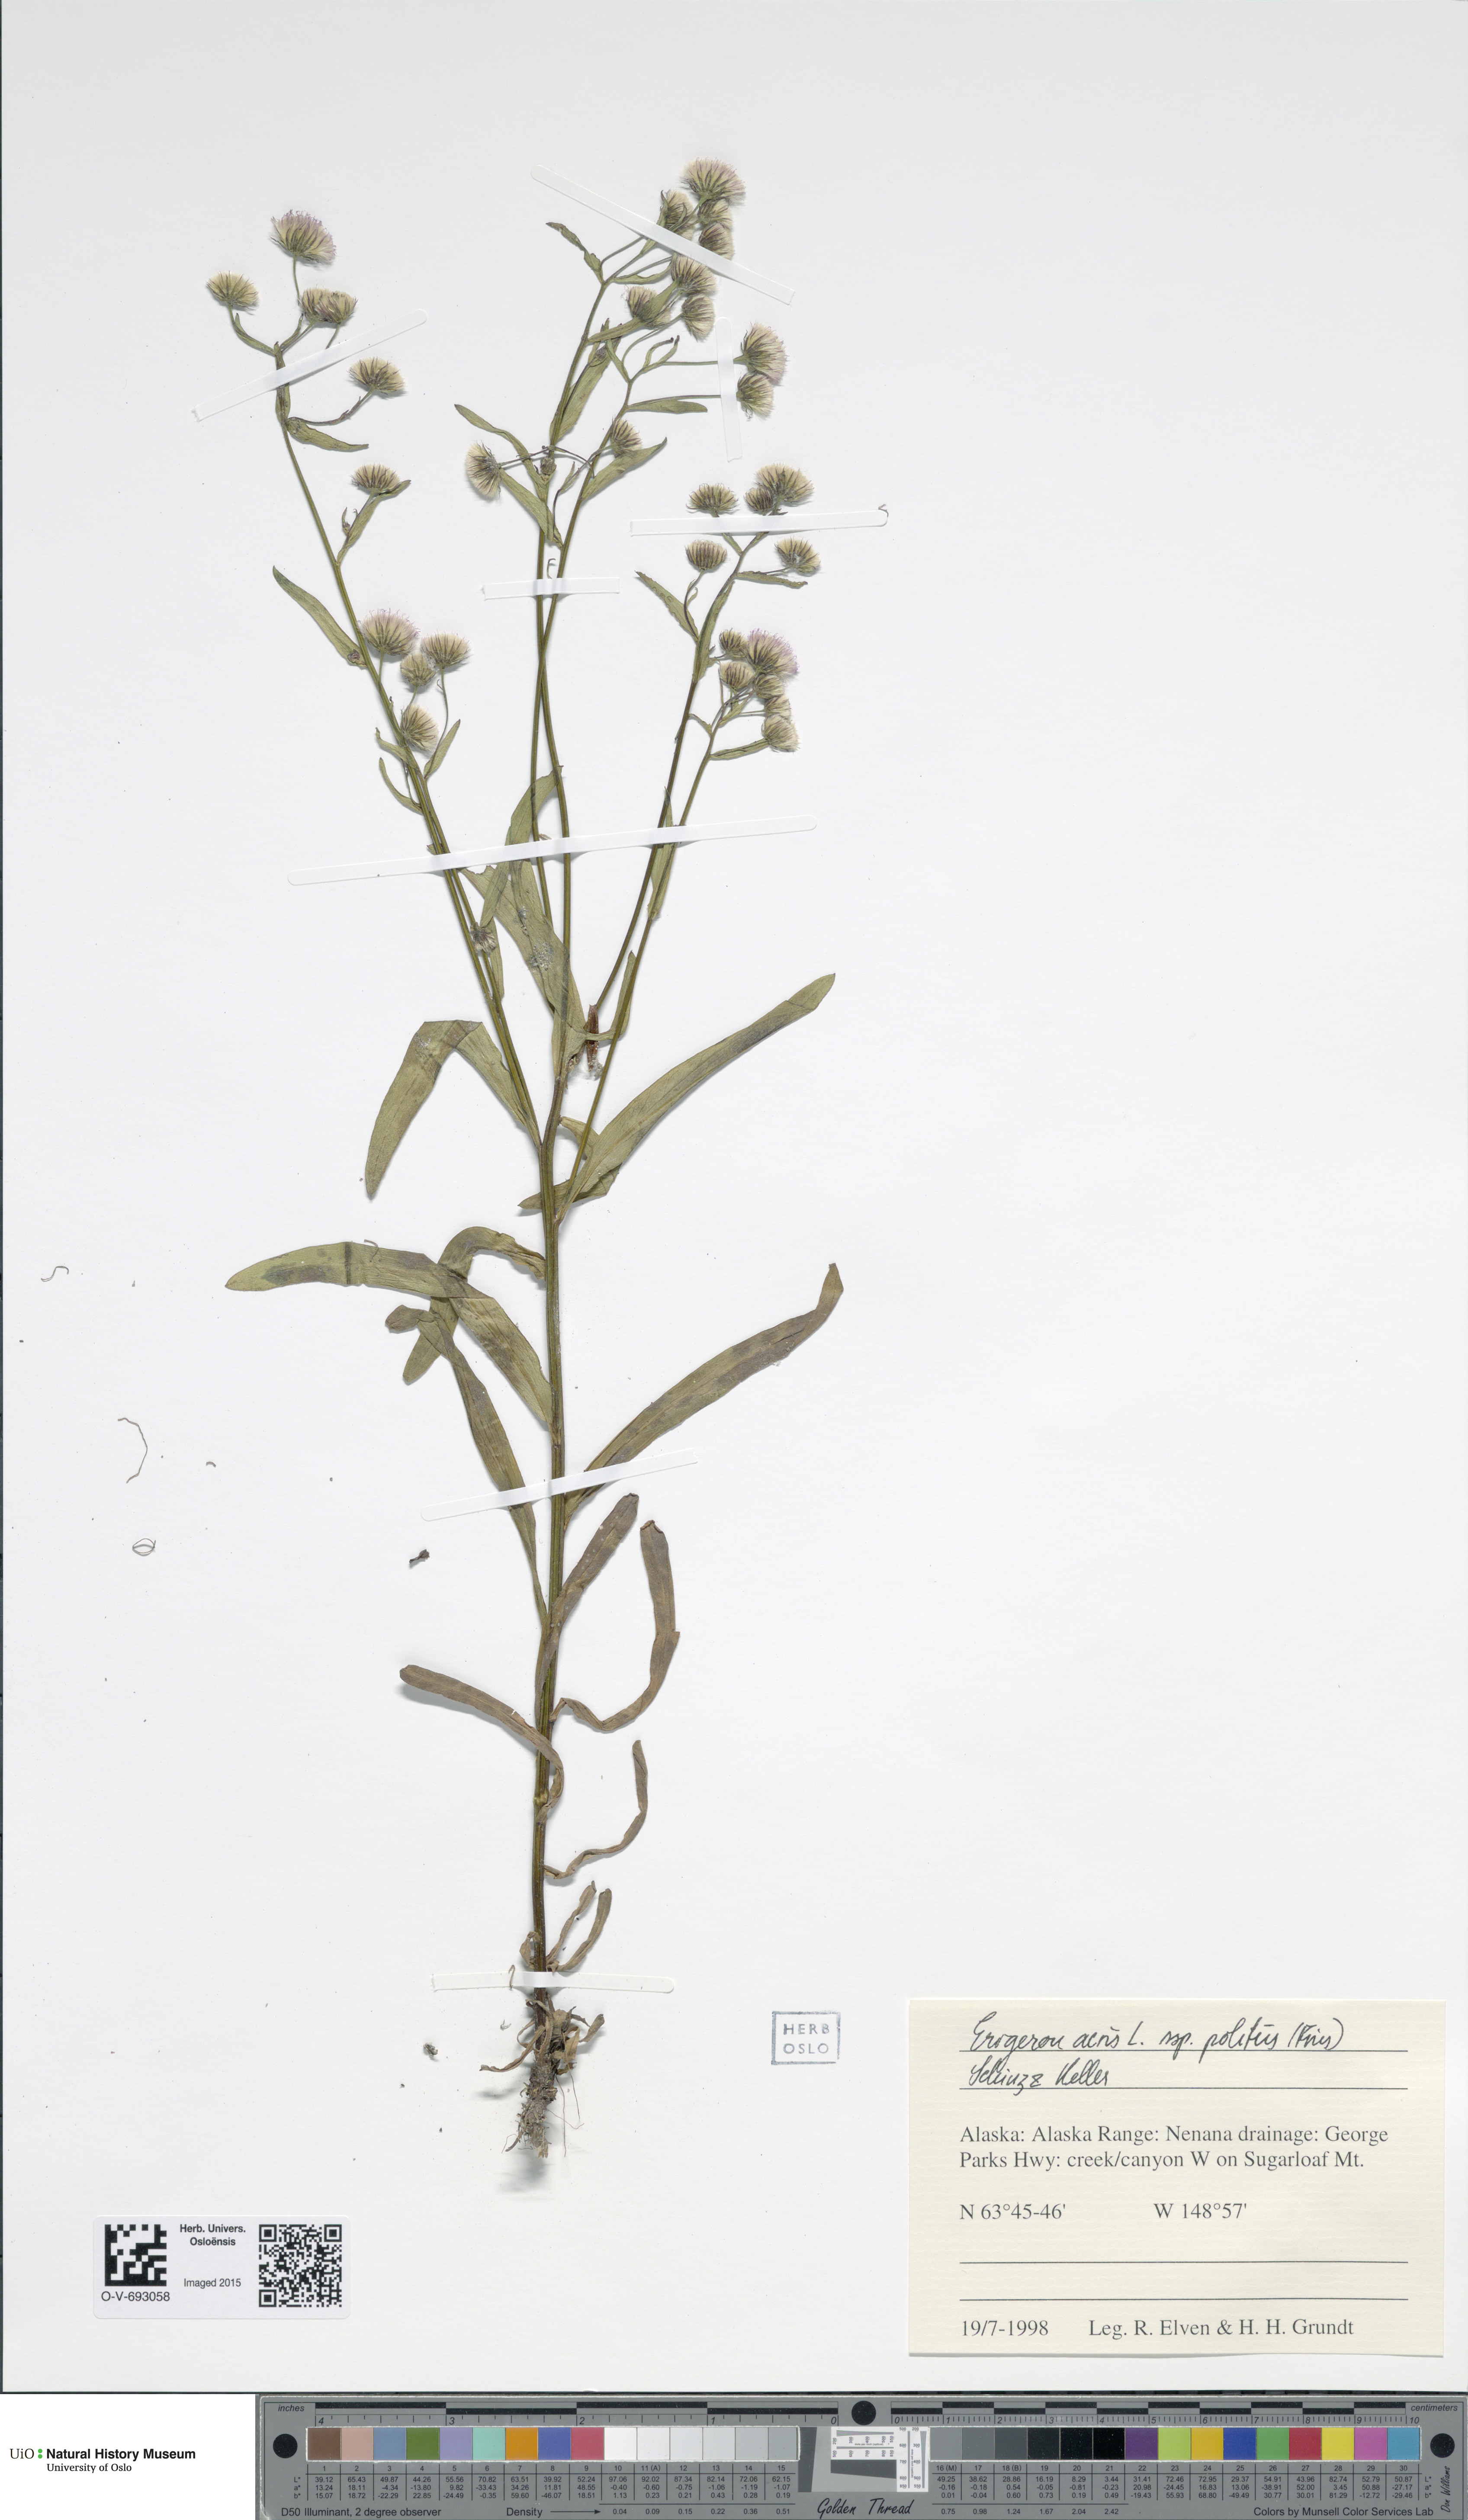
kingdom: Plantae
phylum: Tracheophyta
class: Magnoliopsida
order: Asterales
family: Asteraceae
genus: Erigeron
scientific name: Erigeron politus
